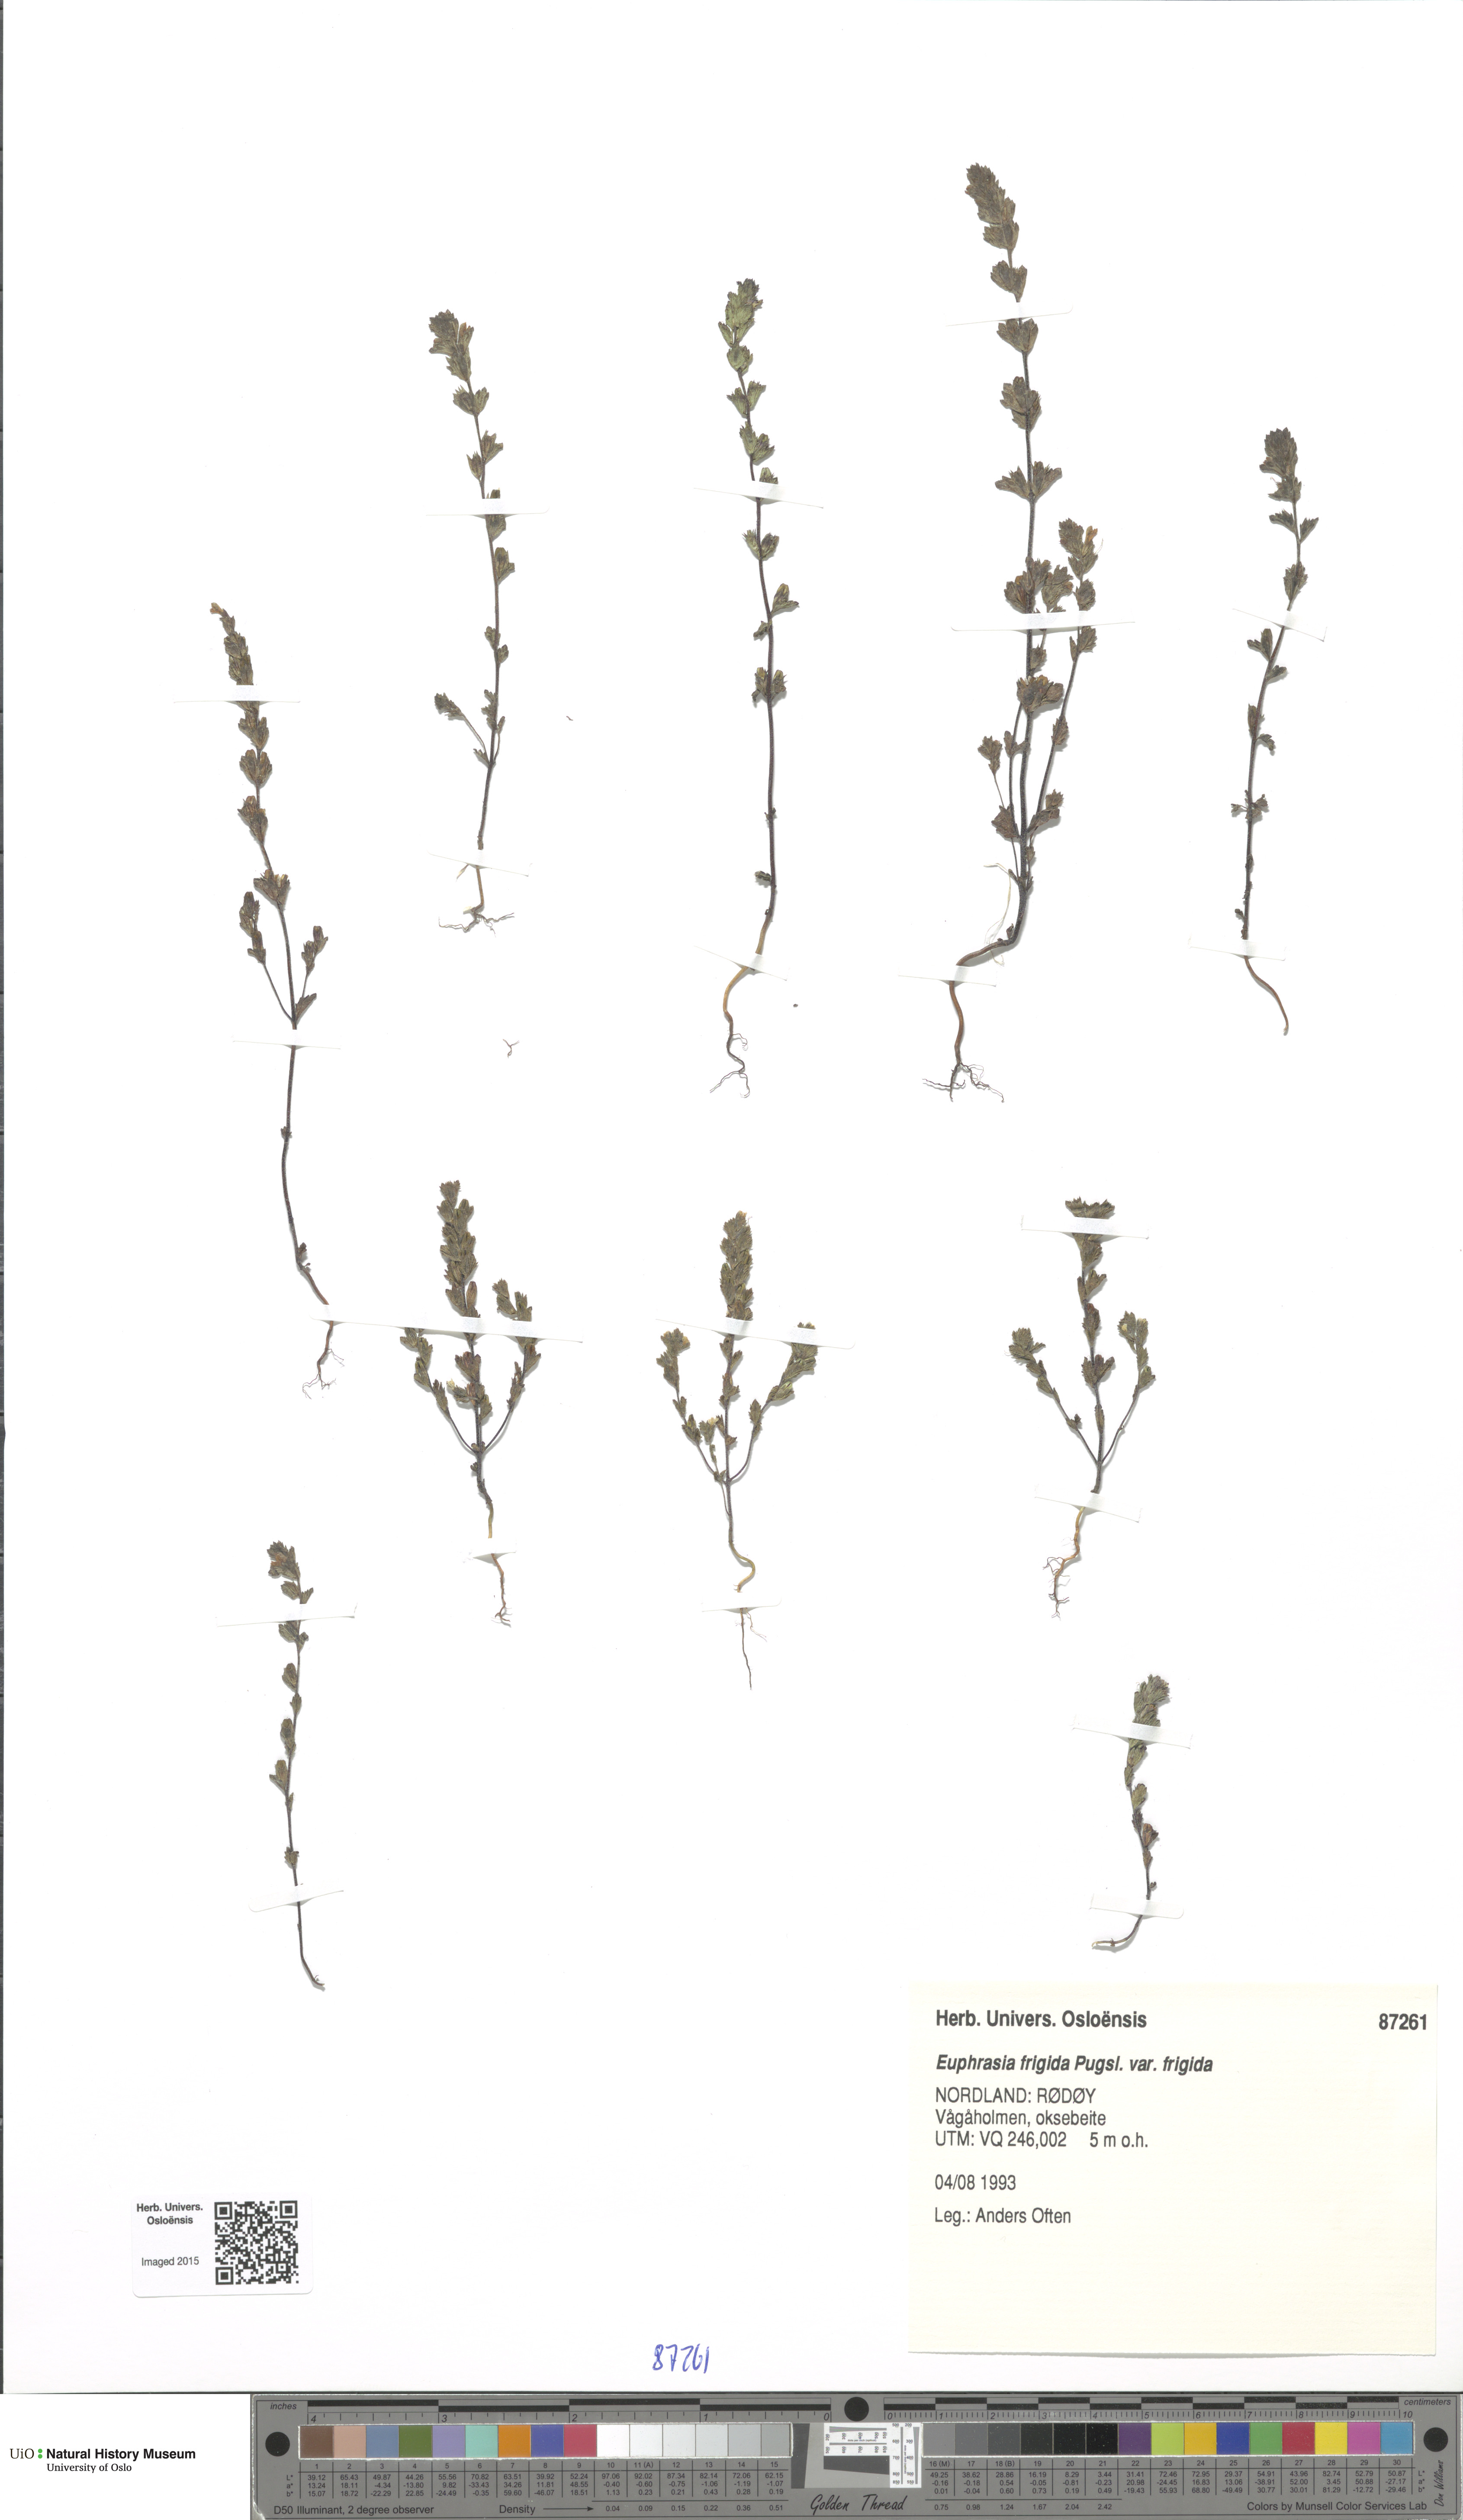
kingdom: Plantae
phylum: Tracheophyta
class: Magnoliopsida
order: Lamiales
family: Orobanchaceae
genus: Euphrasia
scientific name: Euphrasia wettsteinii
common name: Wettstein's eyebright
